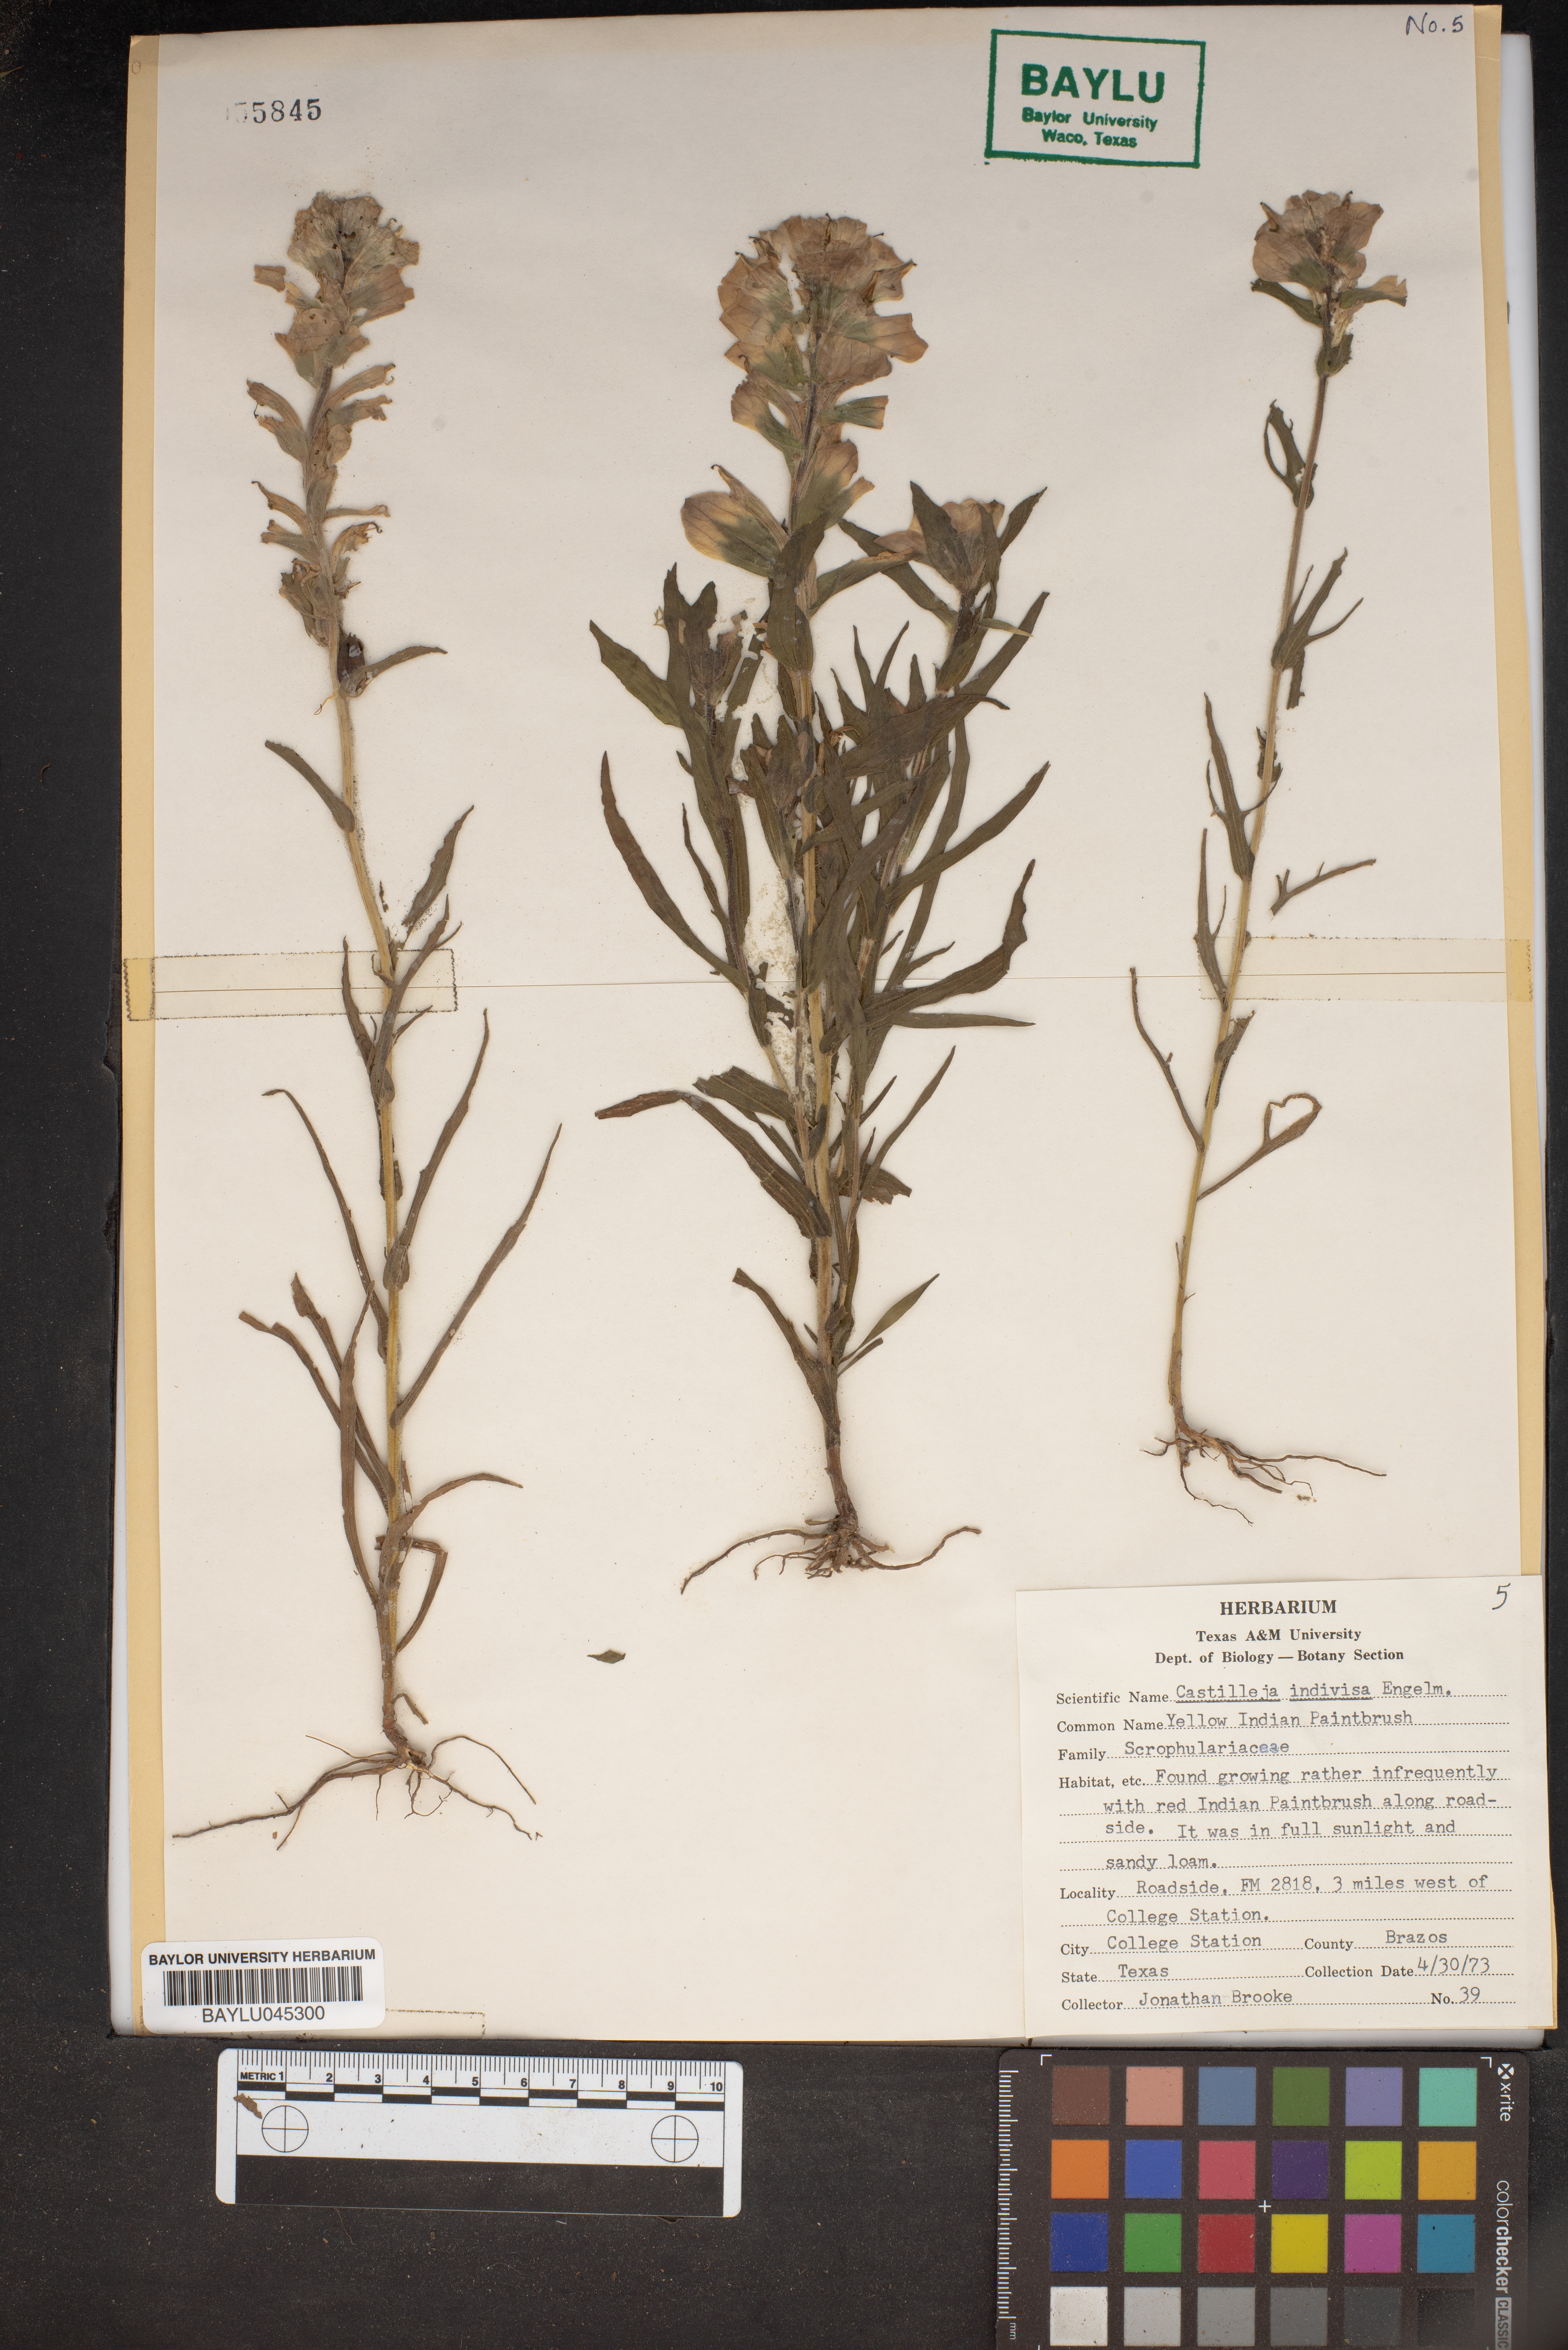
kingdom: Plantae
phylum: Tracheophyta
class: Magnoliopsida
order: Lamiales
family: Orobanchaceae
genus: Castilleja
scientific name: Castilleja indivisa
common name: Texas paintbrush
